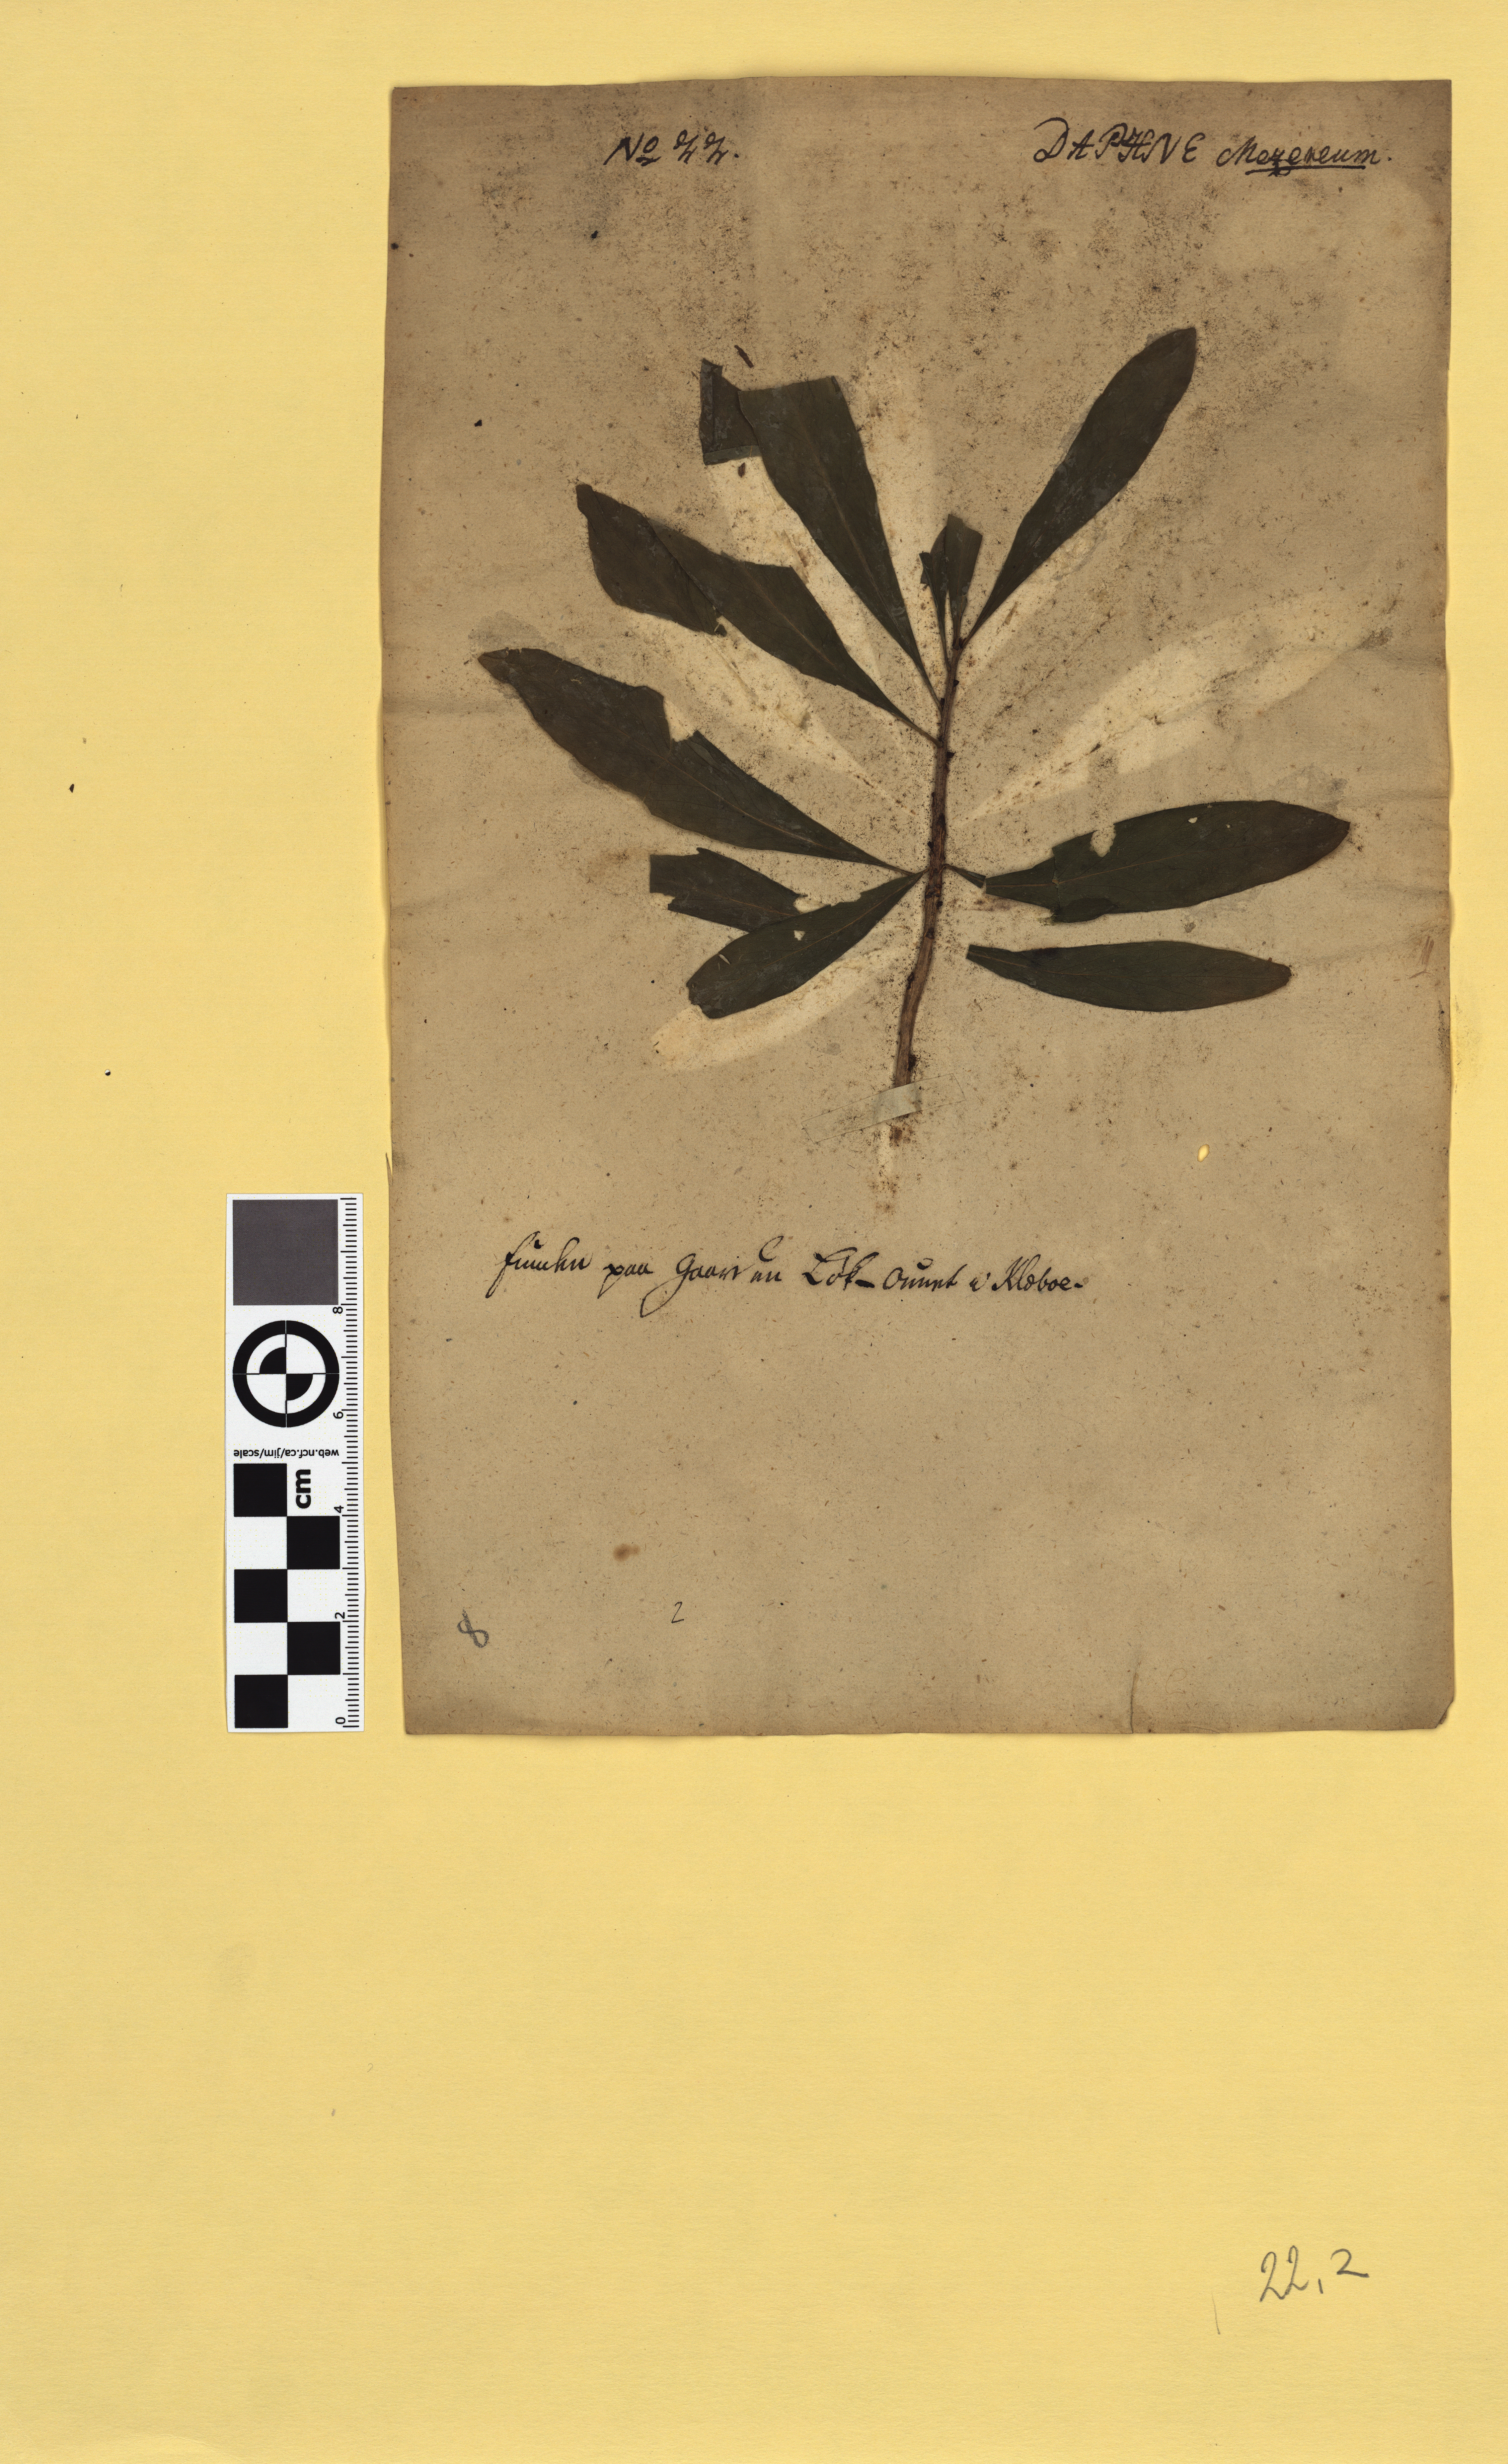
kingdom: Plantae
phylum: Tracheophyta
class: Magnoliopsida
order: Malvales
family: Thymelaeaceae
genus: Daphne
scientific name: Daphne mezereum
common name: Mezereon
